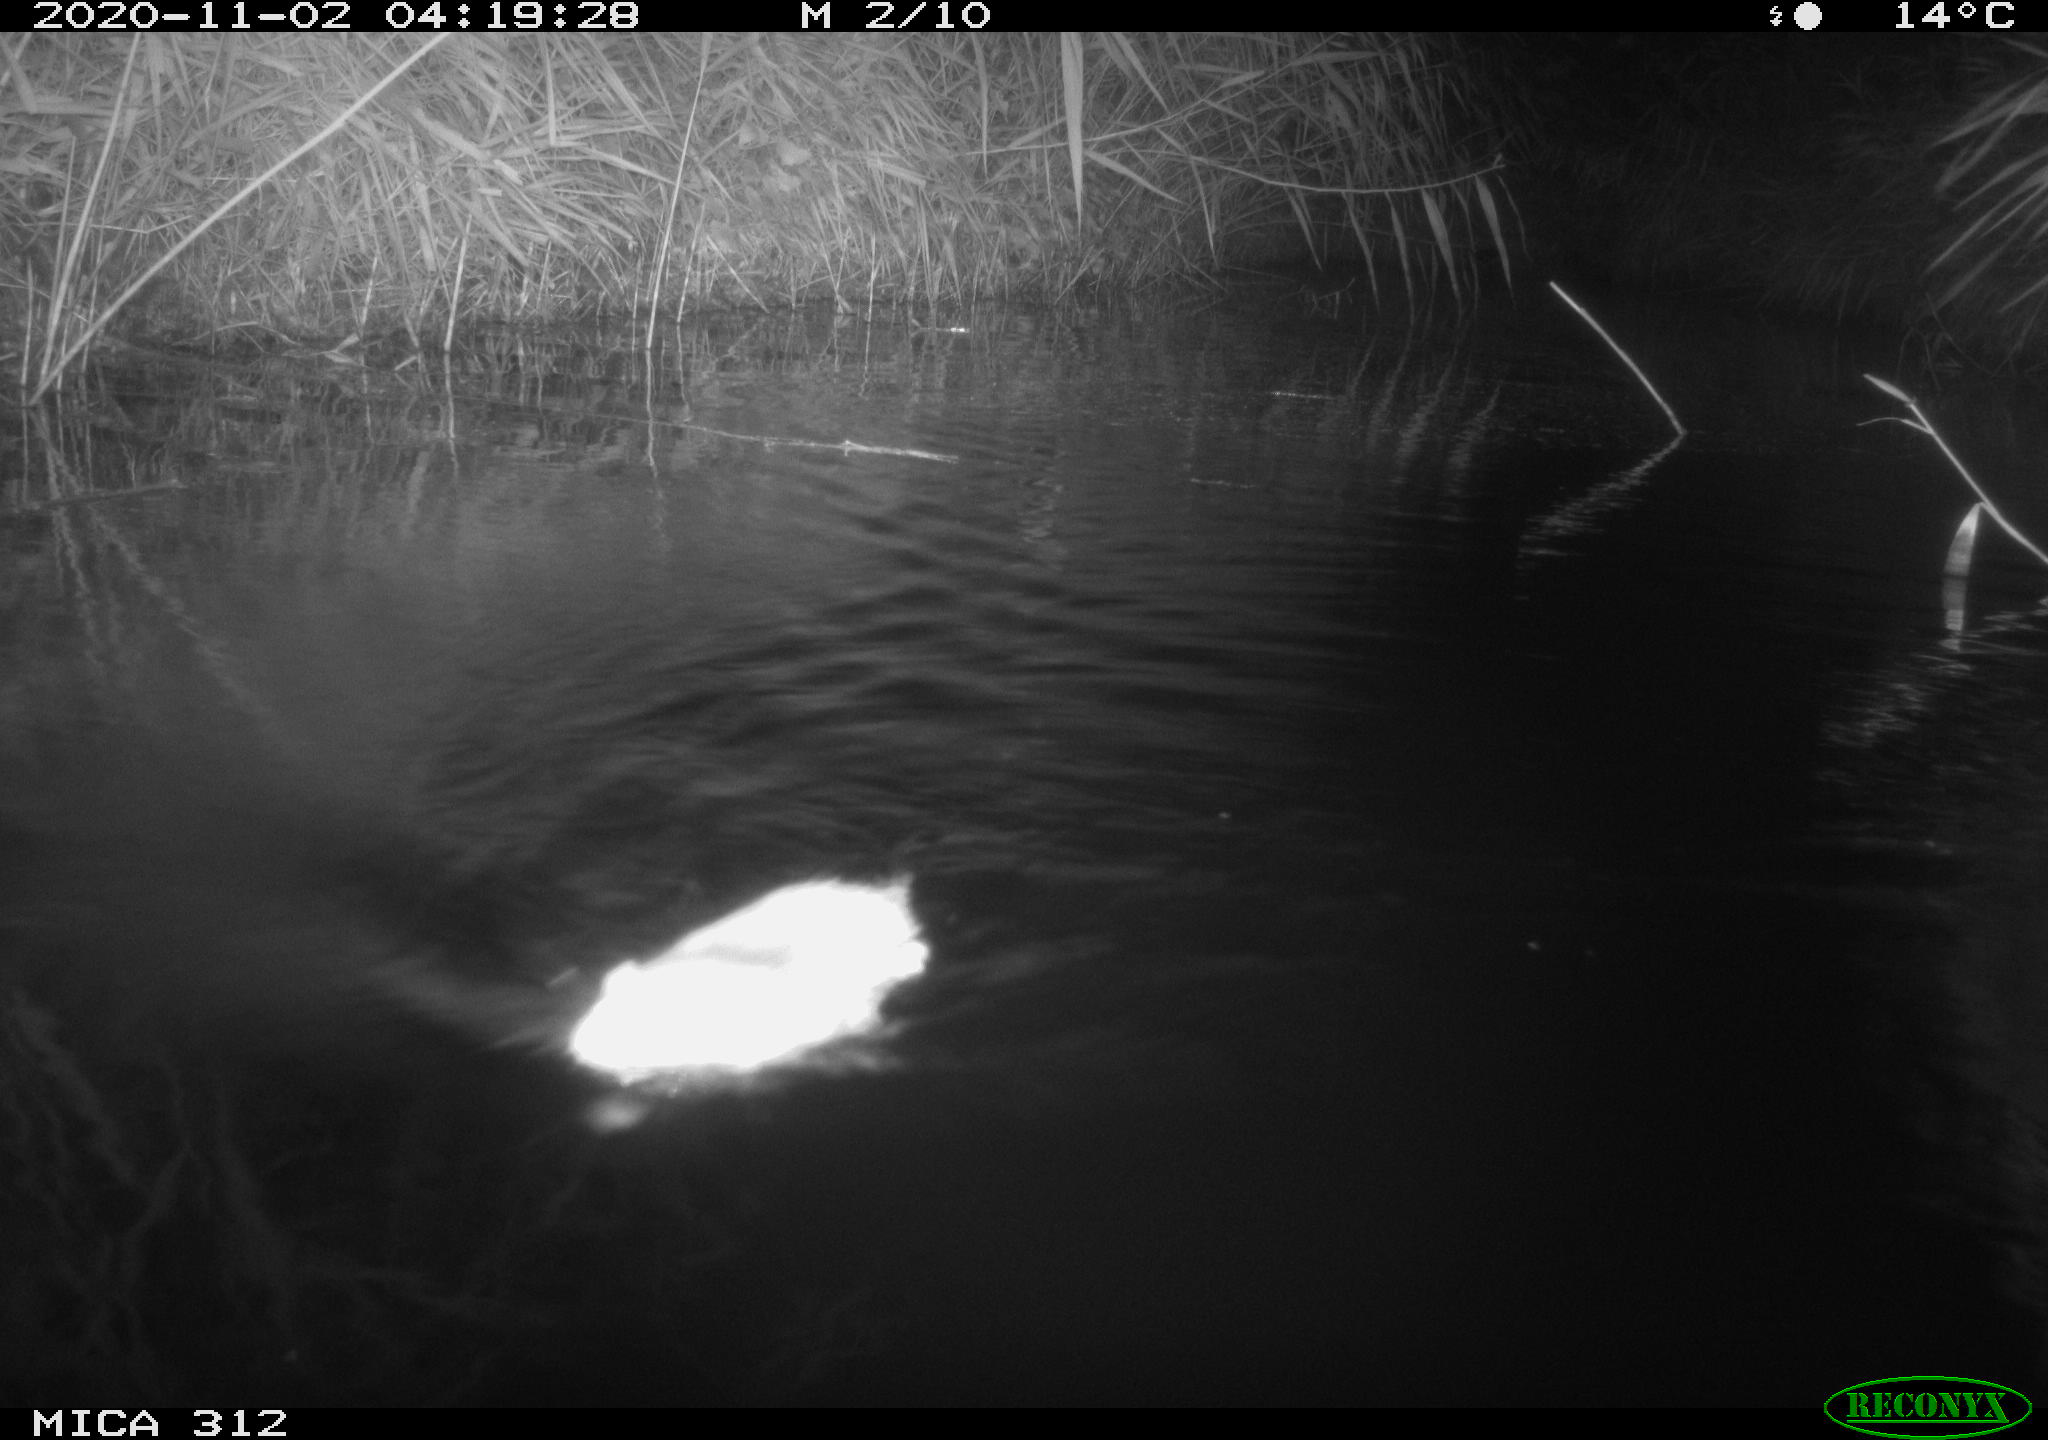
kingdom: Animalia
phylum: Chordata
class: Mammalia
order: Rodentia
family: Cricetidae
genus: Ondatra
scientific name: Ondatra zibethicus
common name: Muskrat
